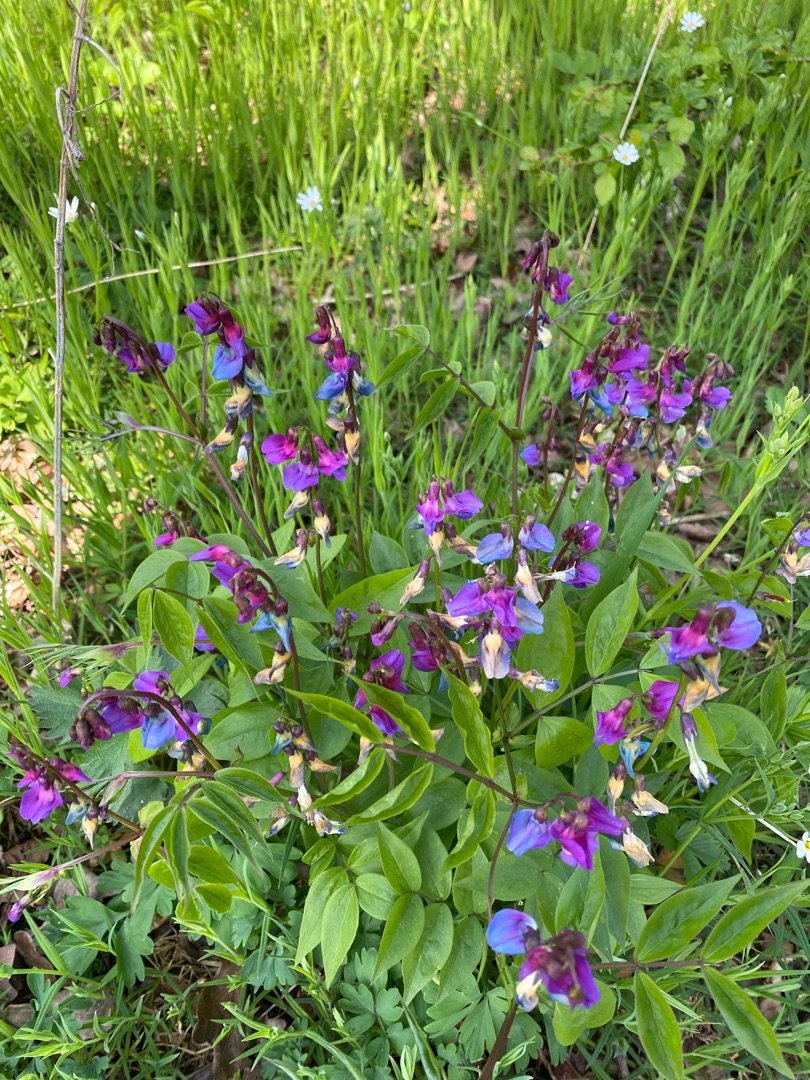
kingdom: Plantae
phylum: Tracheophyta
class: Magnoliopsida
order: Fabales
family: Fabaceae
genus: Lathyrus
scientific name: Lathyrus vernus
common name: Vår-fladbælg
